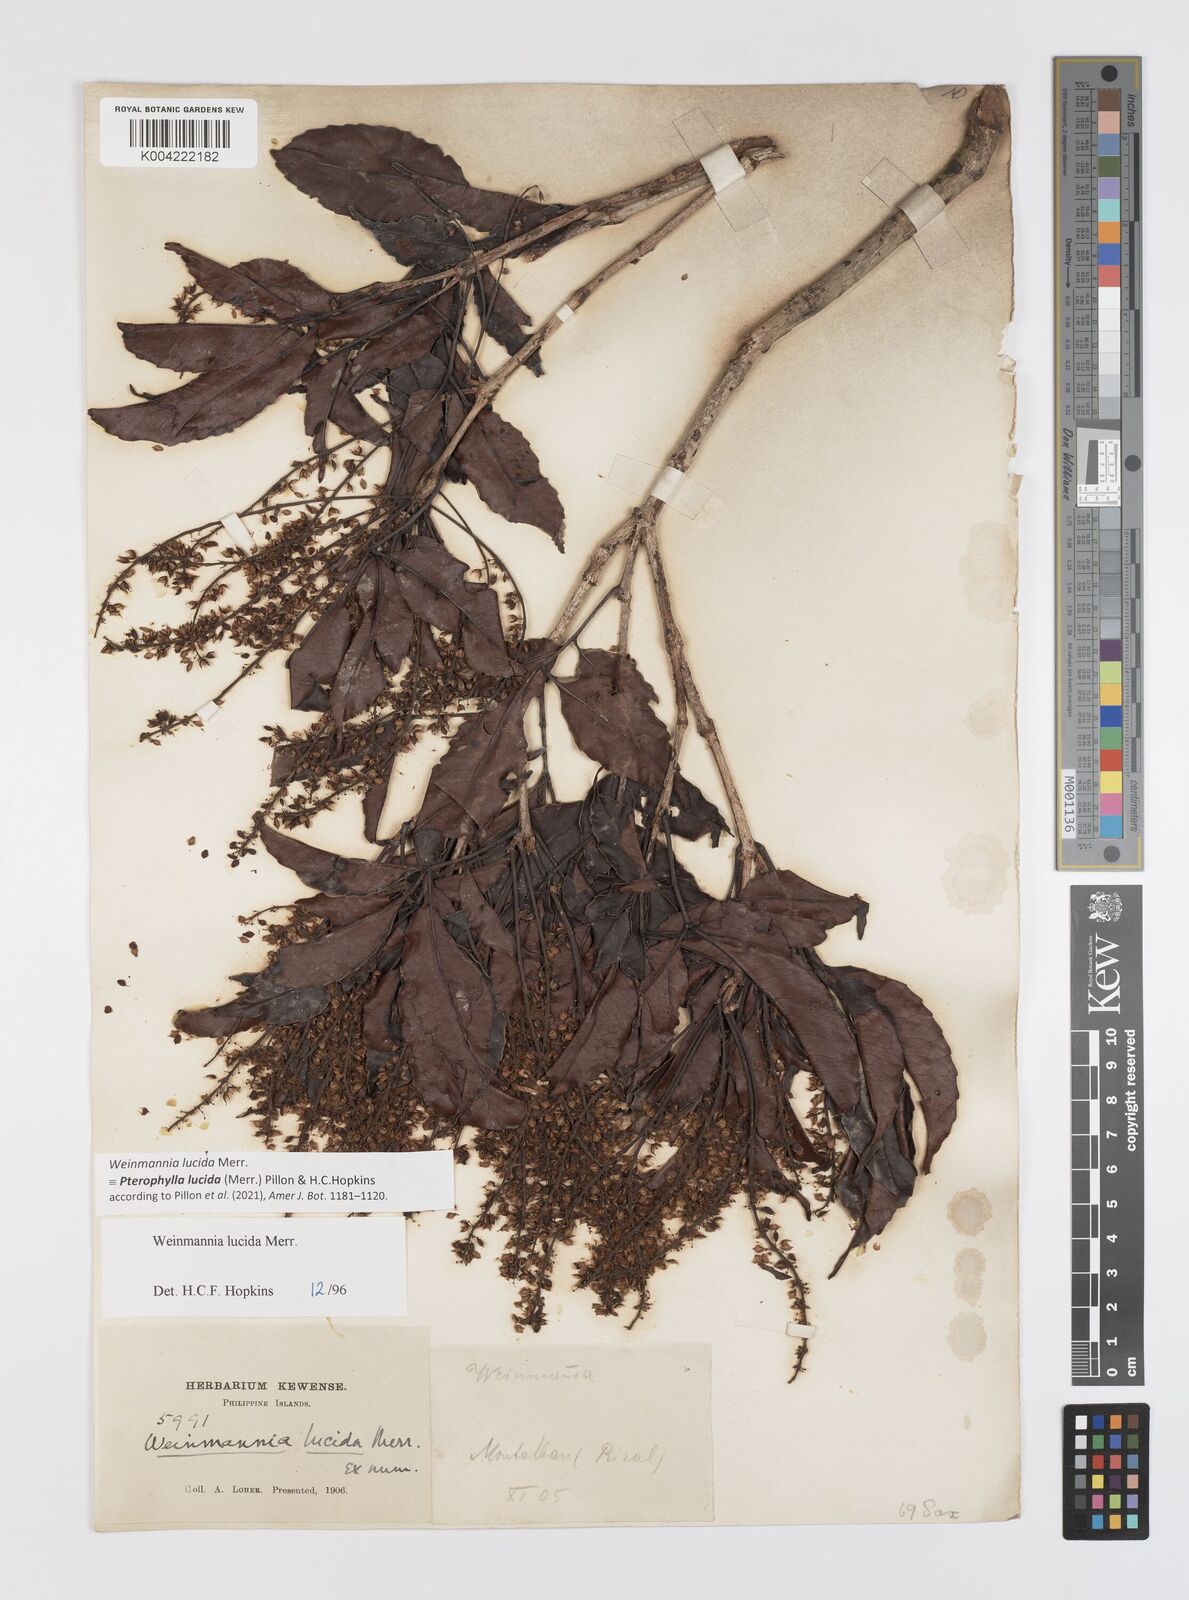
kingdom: Plantae
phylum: Tracheophyta
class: Magnoliopsida
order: Oxalidales
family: Cunoniaceae
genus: Pterophylla
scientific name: Pterophylla lucida
